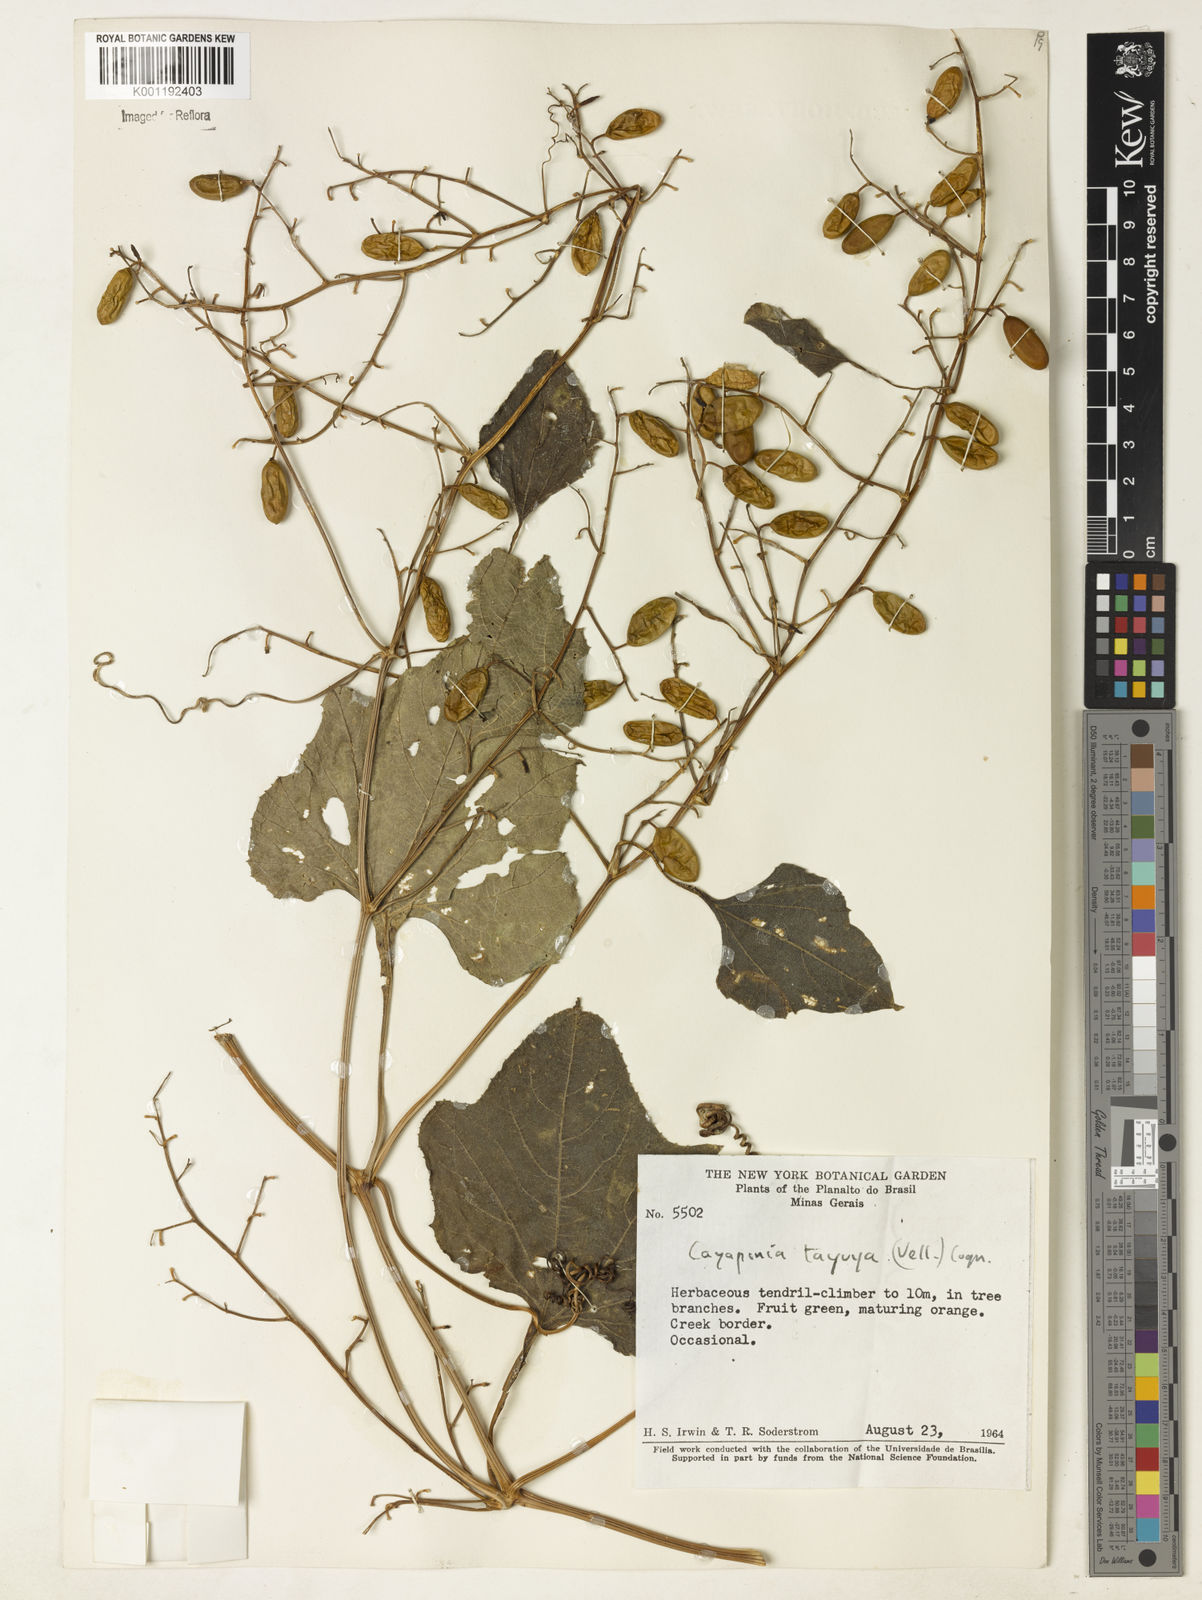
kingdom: Plantae
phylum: Tracheophyta
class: Magnoliopsida
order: Cucurbitales
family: Cucurbitaceae
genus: Cayaponia
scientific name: Cayaponia tayuya
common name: Tayuya
